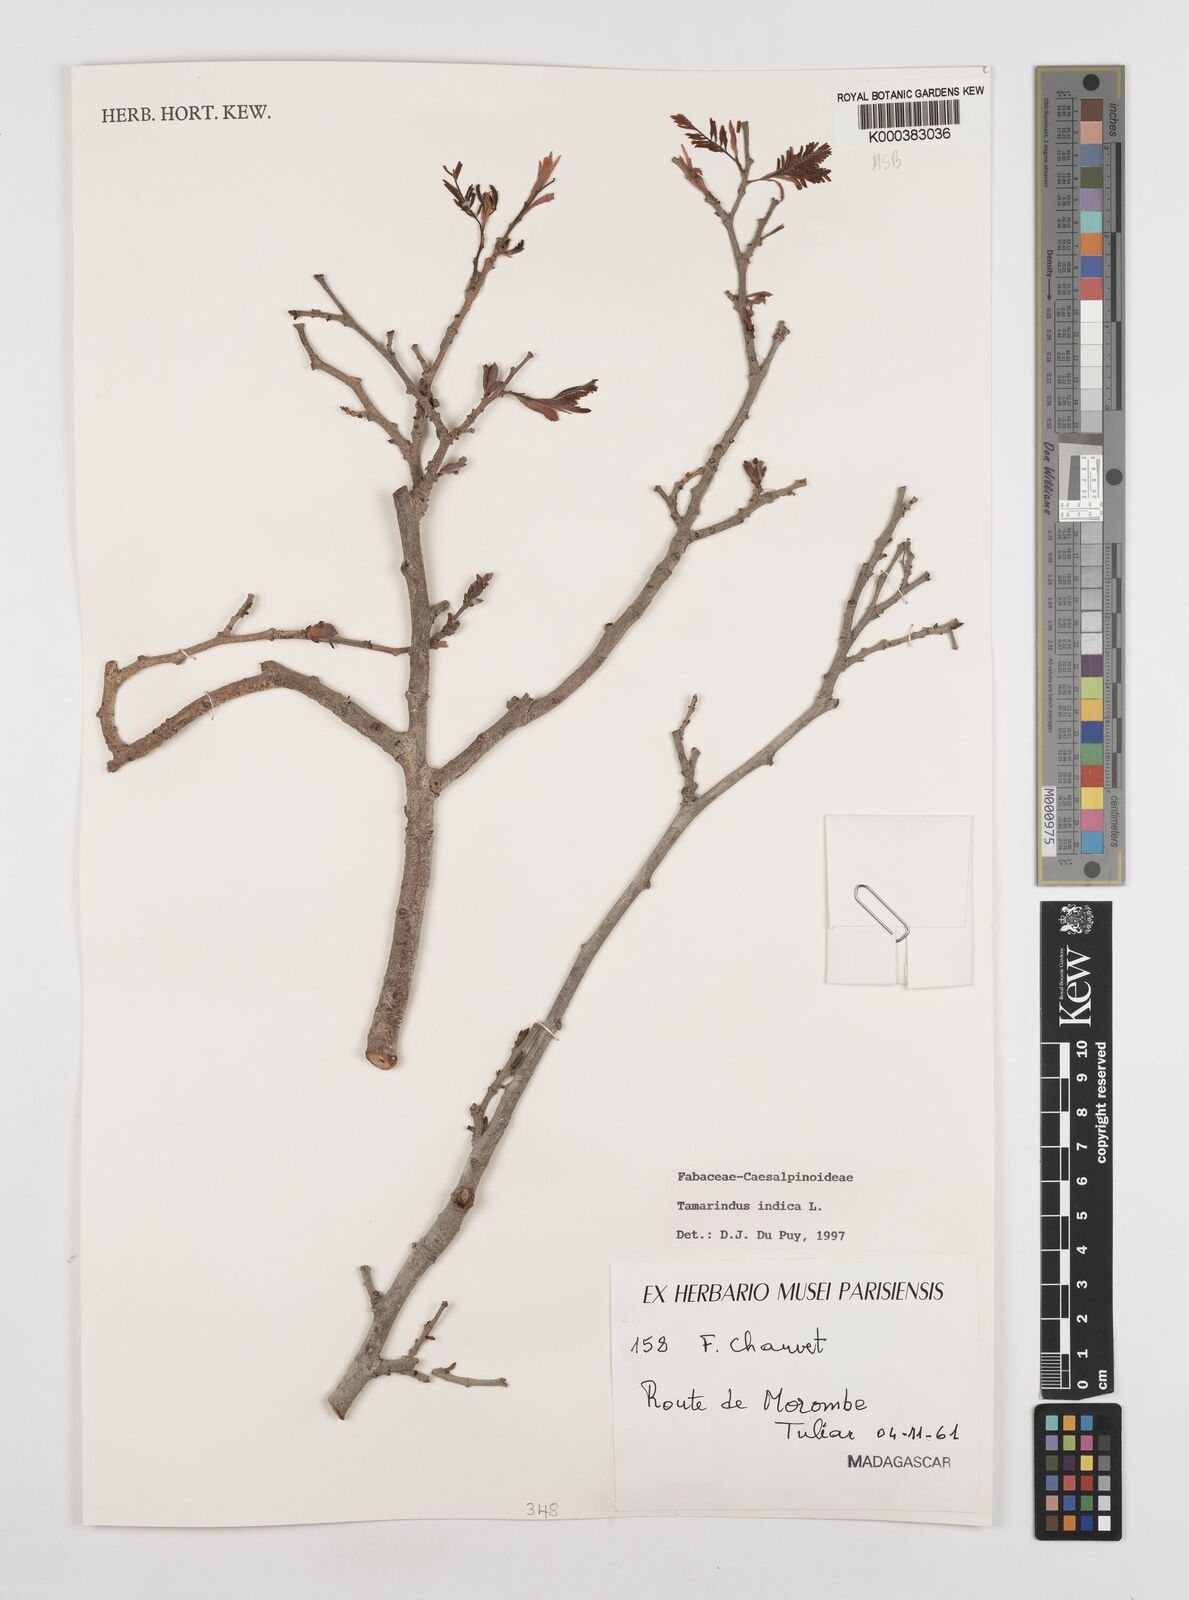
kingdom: Plantae
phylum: Tracheophyta
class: Magnoliopsida
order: Fabales
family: Fabaceae
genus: Tamarindus
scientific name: Tamarindus indica
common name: Tamarind
